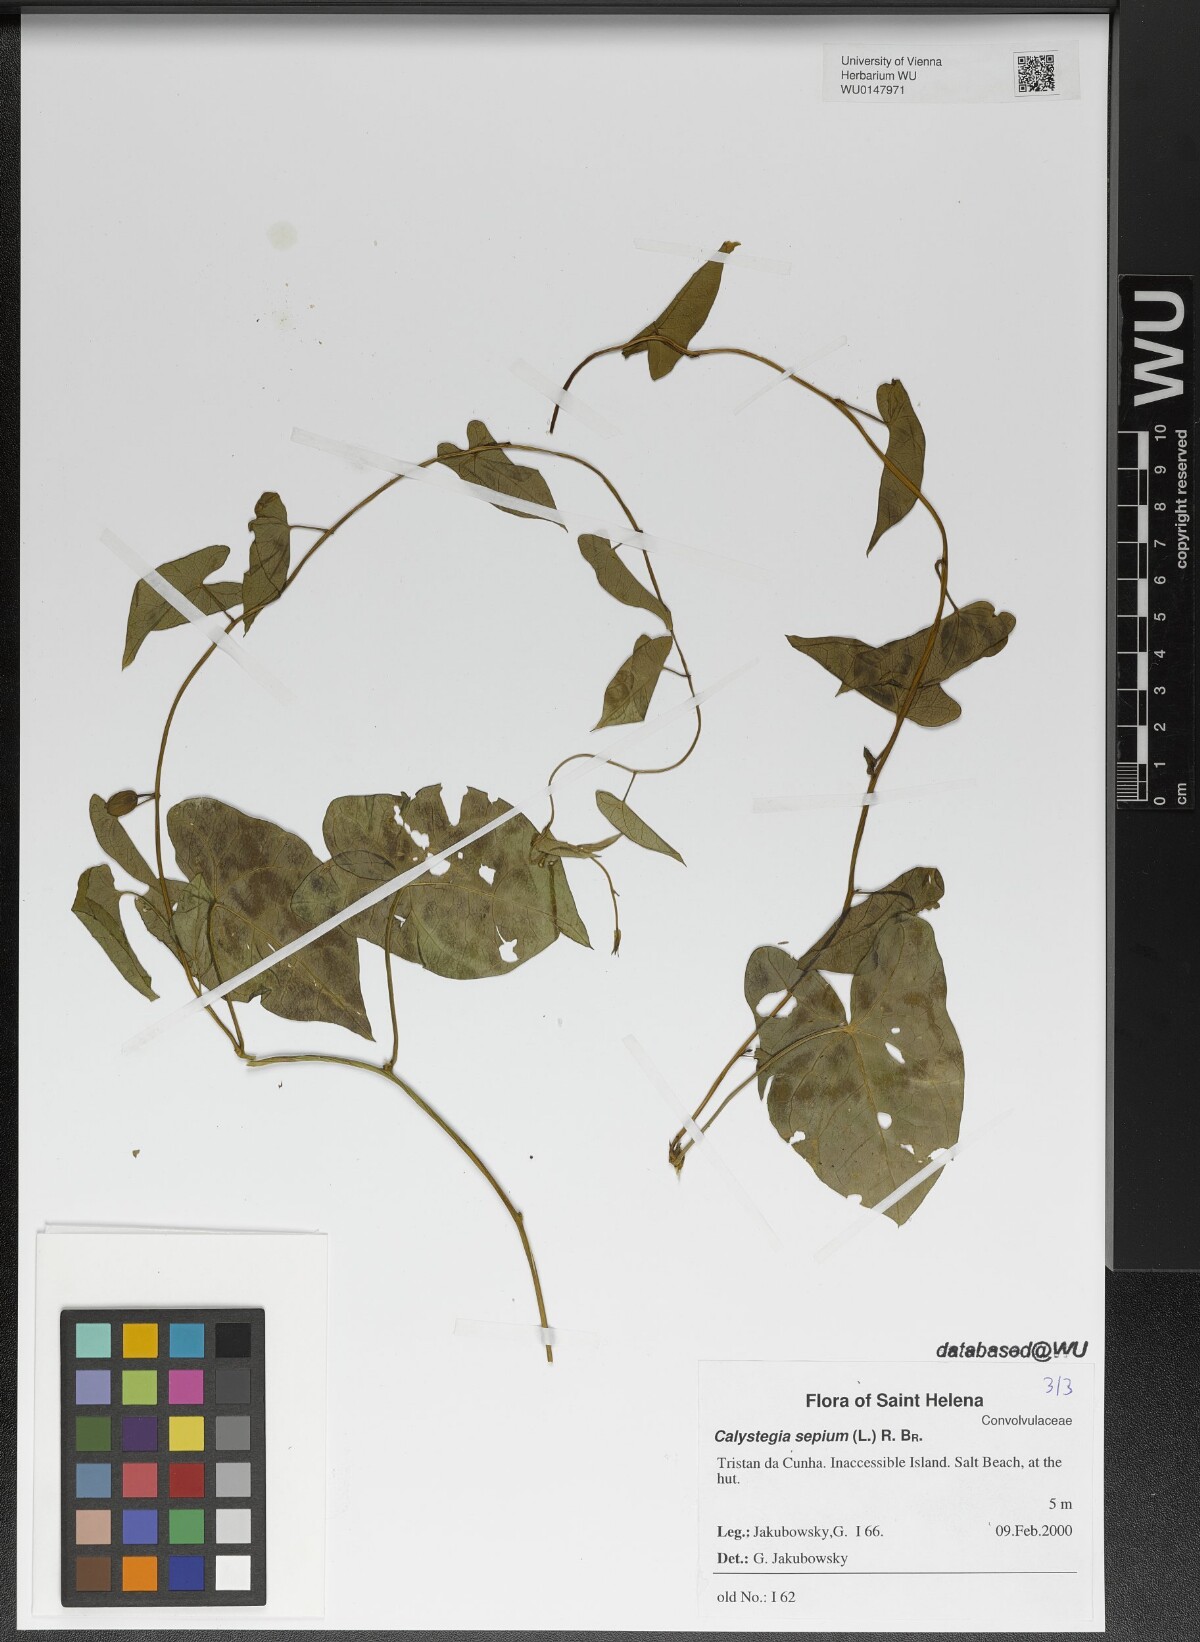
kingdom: Plantae
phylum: Tracheophyta
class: Magnoliopsida
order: Solanales
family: Convolvulaceae
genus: Calystegia
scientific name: Calystegia sepium
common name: Hedge bindweed
